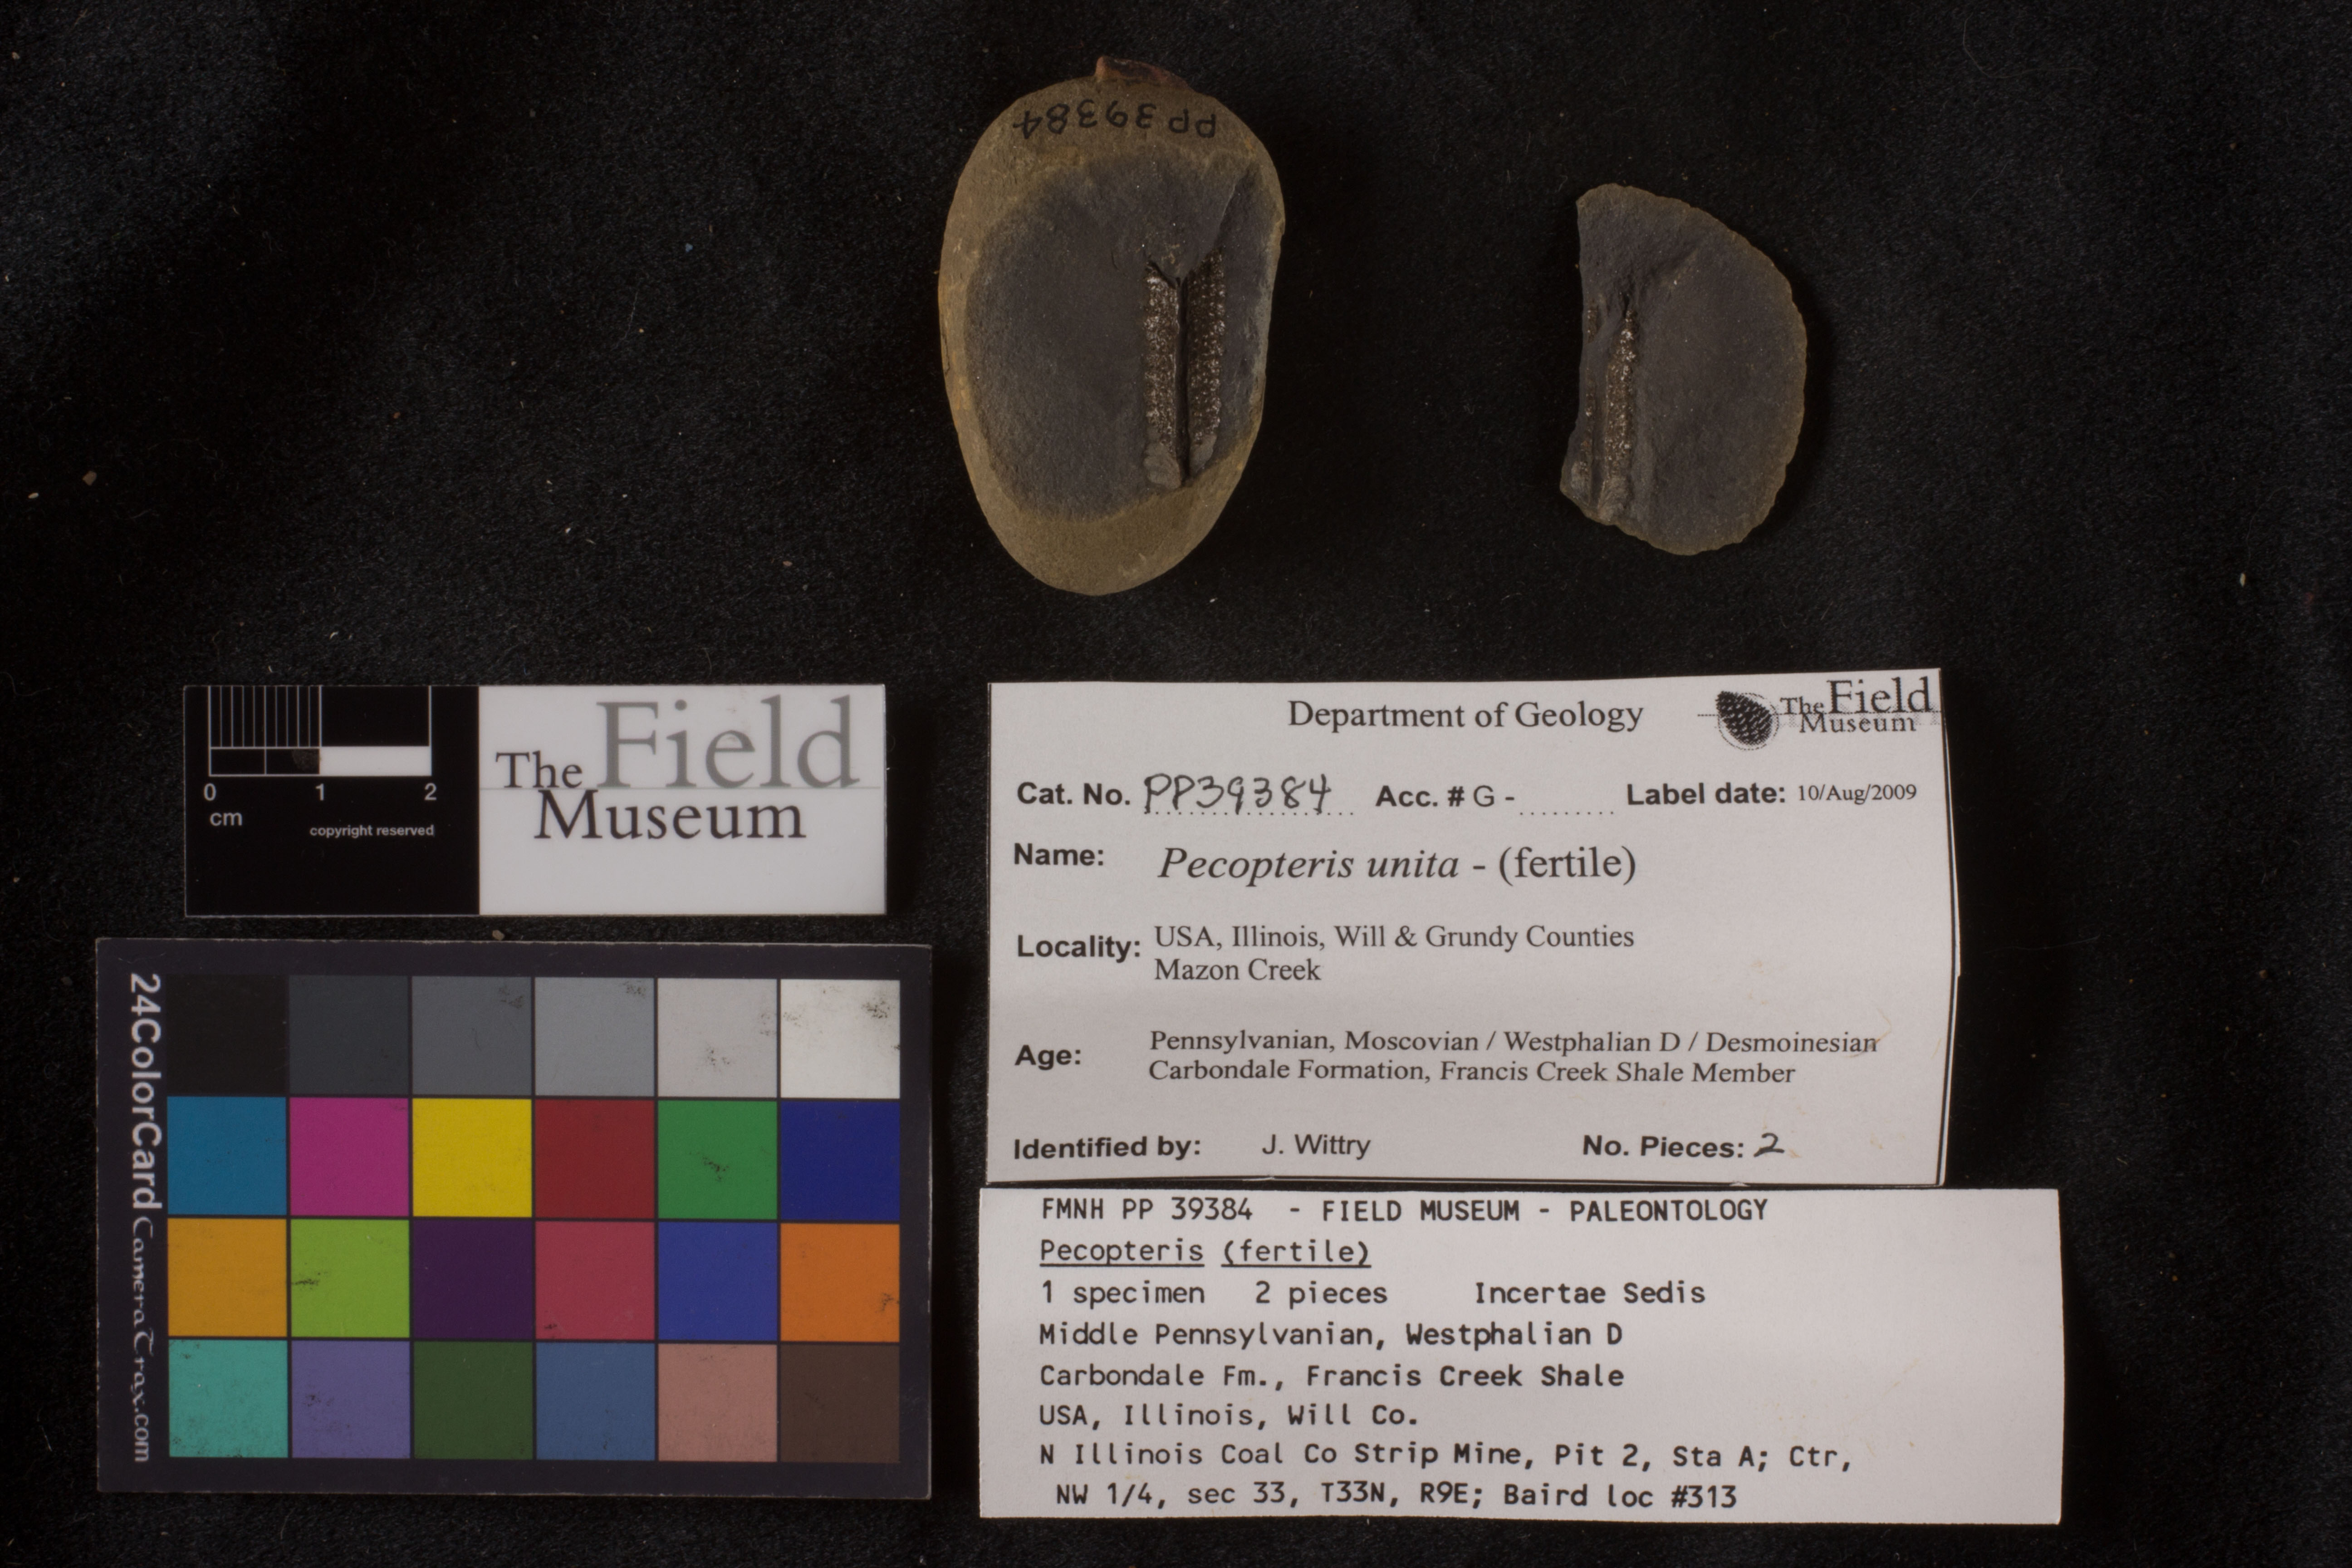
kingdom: Plantae
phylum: Tracheophyta
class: Polypodiopsida
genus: Diplazites
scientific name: Diplazites
